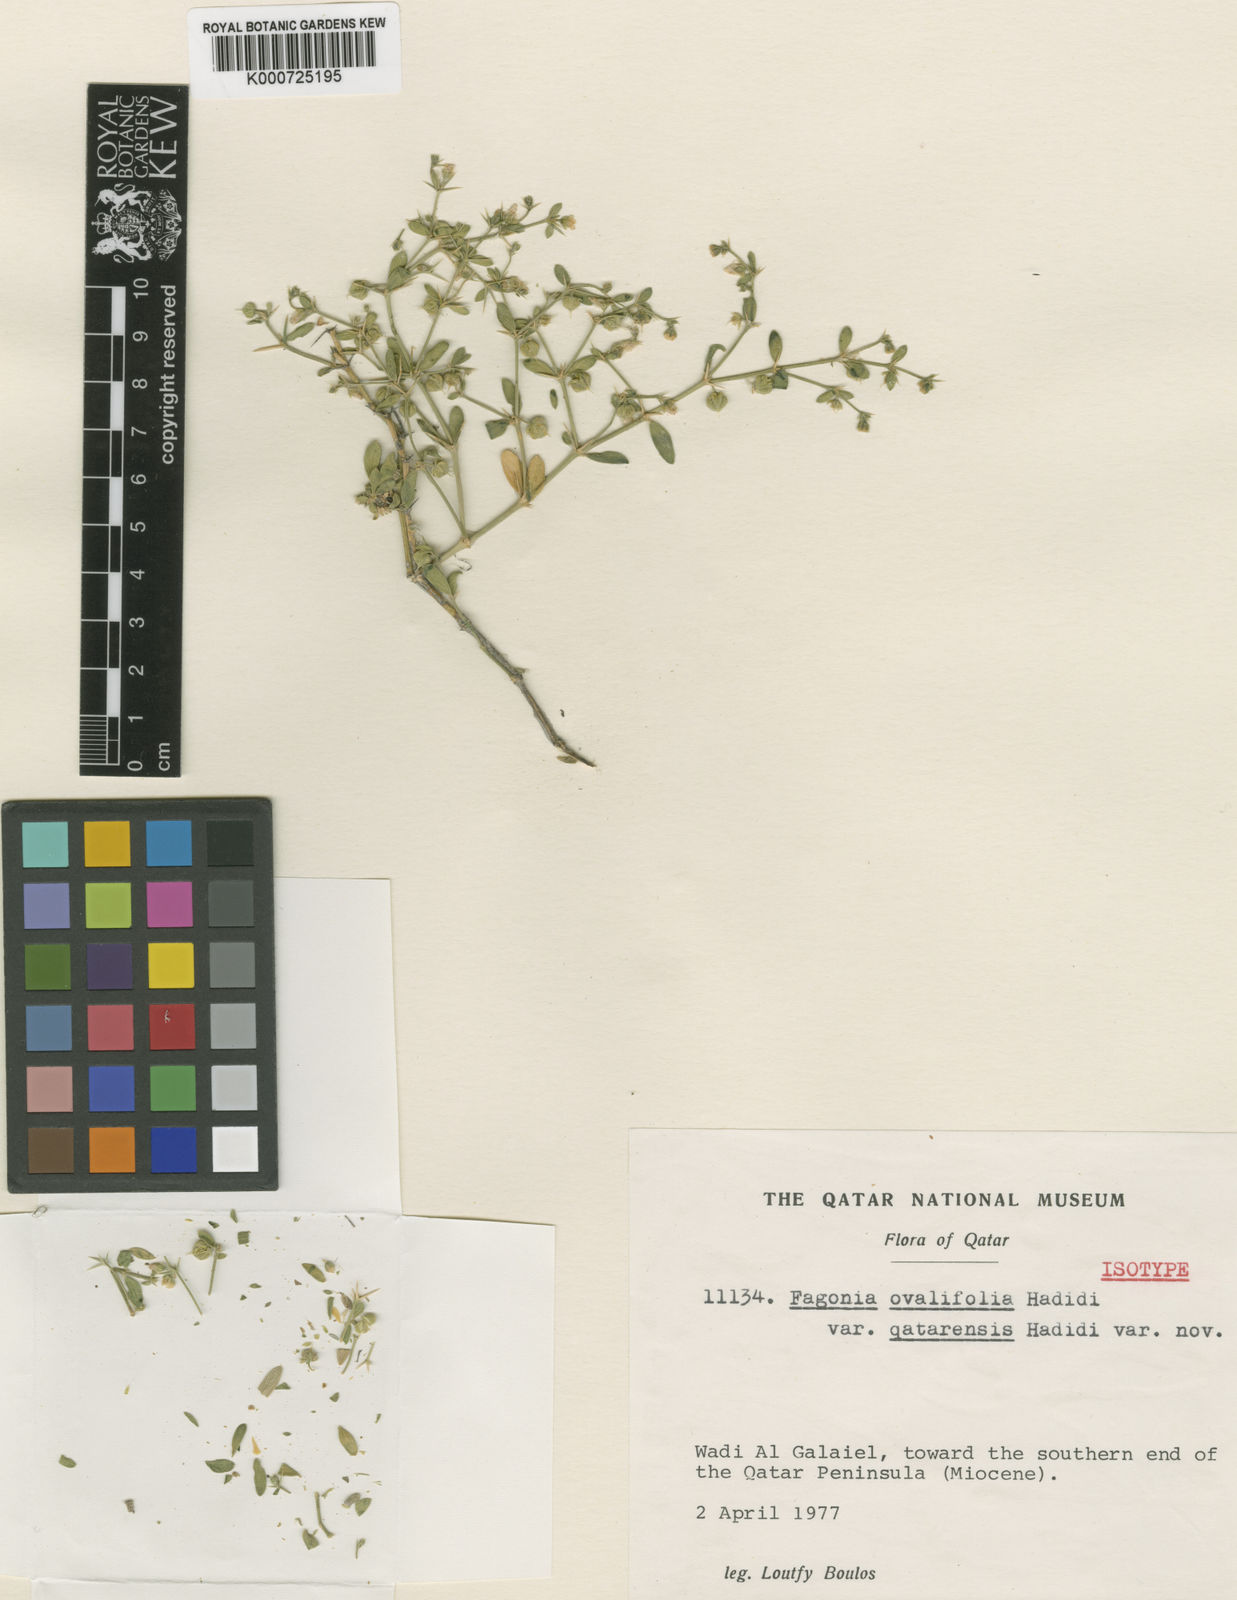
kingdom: Plantae
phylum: Tracheophyta
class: Magnoliopsida
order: Zygophyllales
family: Zygophyllaceae
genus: Fagonia
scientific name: Fagonia indica
